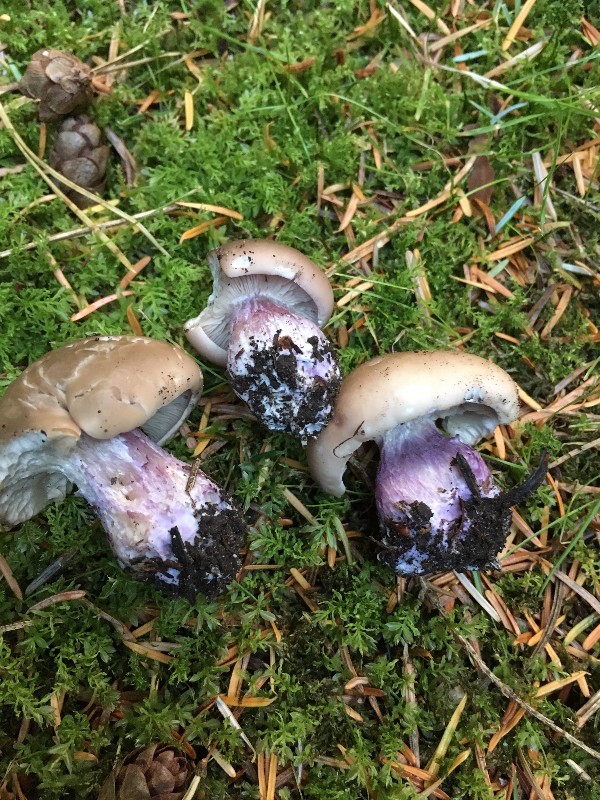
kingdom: Fungi
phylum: Basidiomycota
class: Agaricomycetes
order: Agaricales
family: Tricholomataceae
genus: Lepista
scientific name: Lepista personata
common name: bleg hekseringshat
